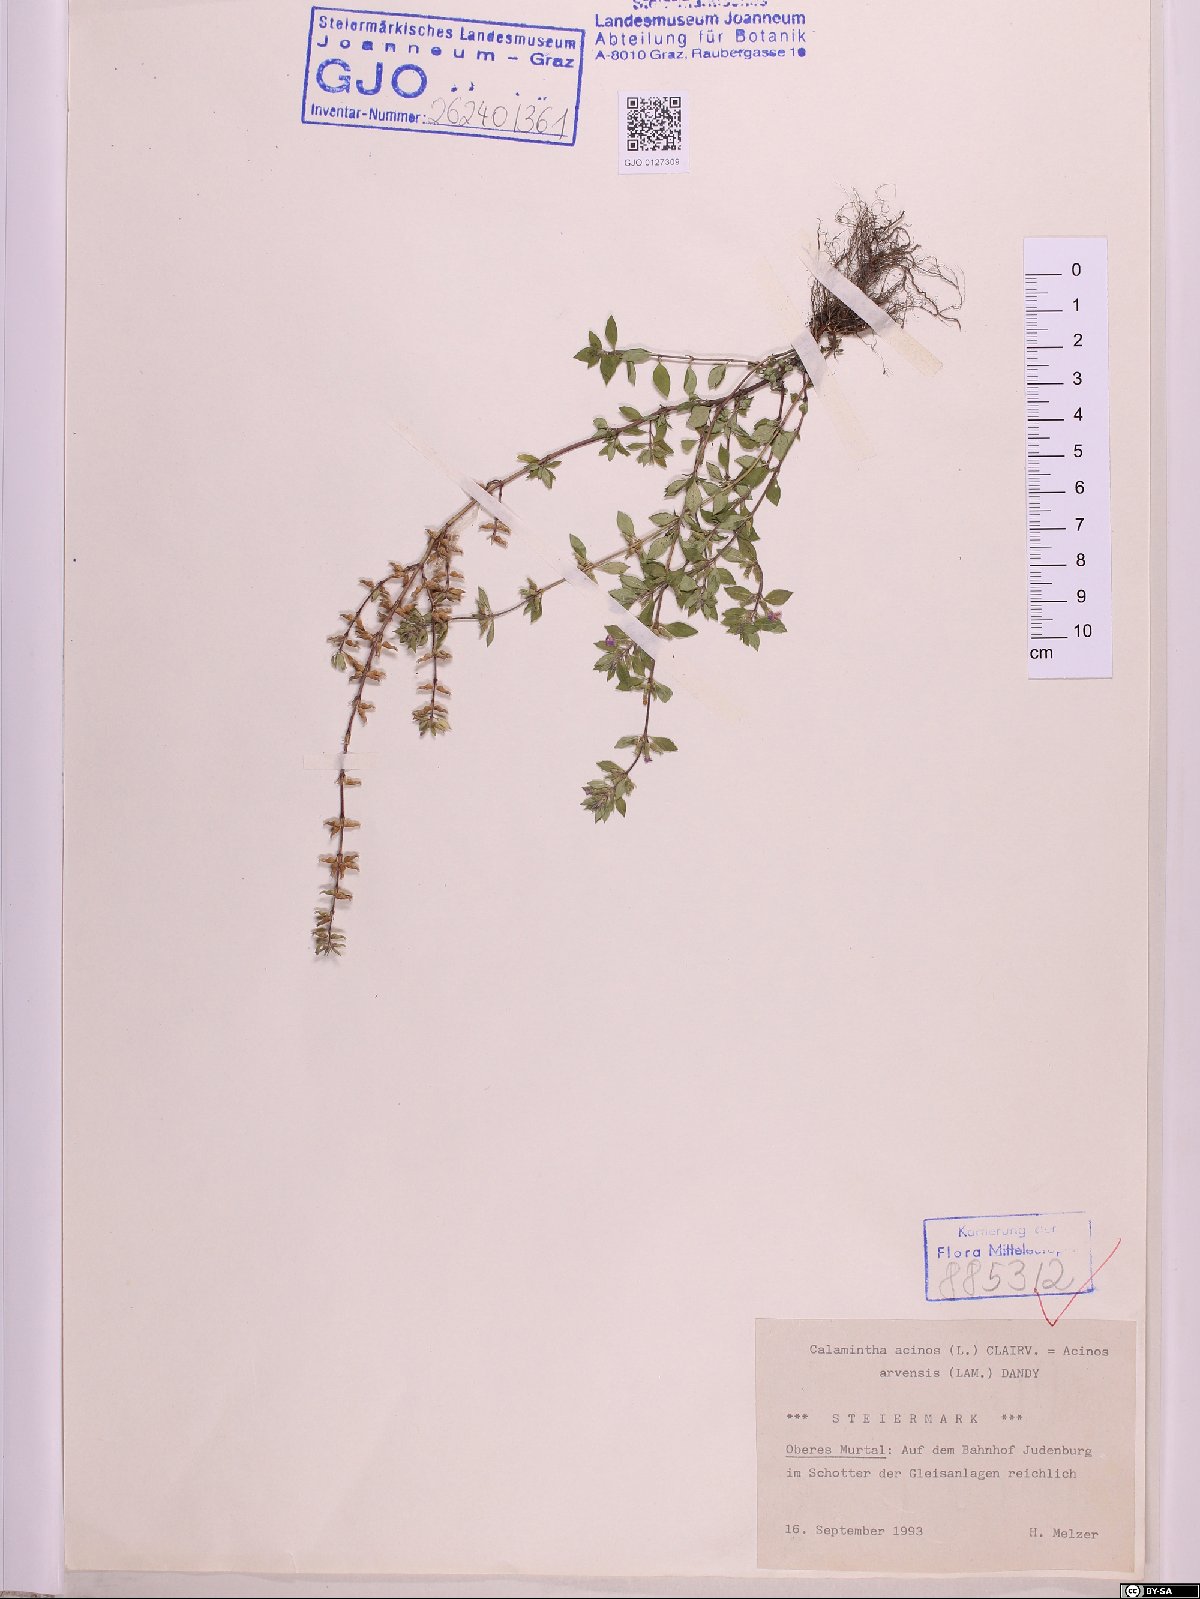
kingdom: Plantae
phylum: Tracheophyta
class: Magnoliopsida
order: Lamiales
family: Lamiaceae
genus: Clinopodium
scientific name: Clinopodium acinos
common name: Basil thyme
